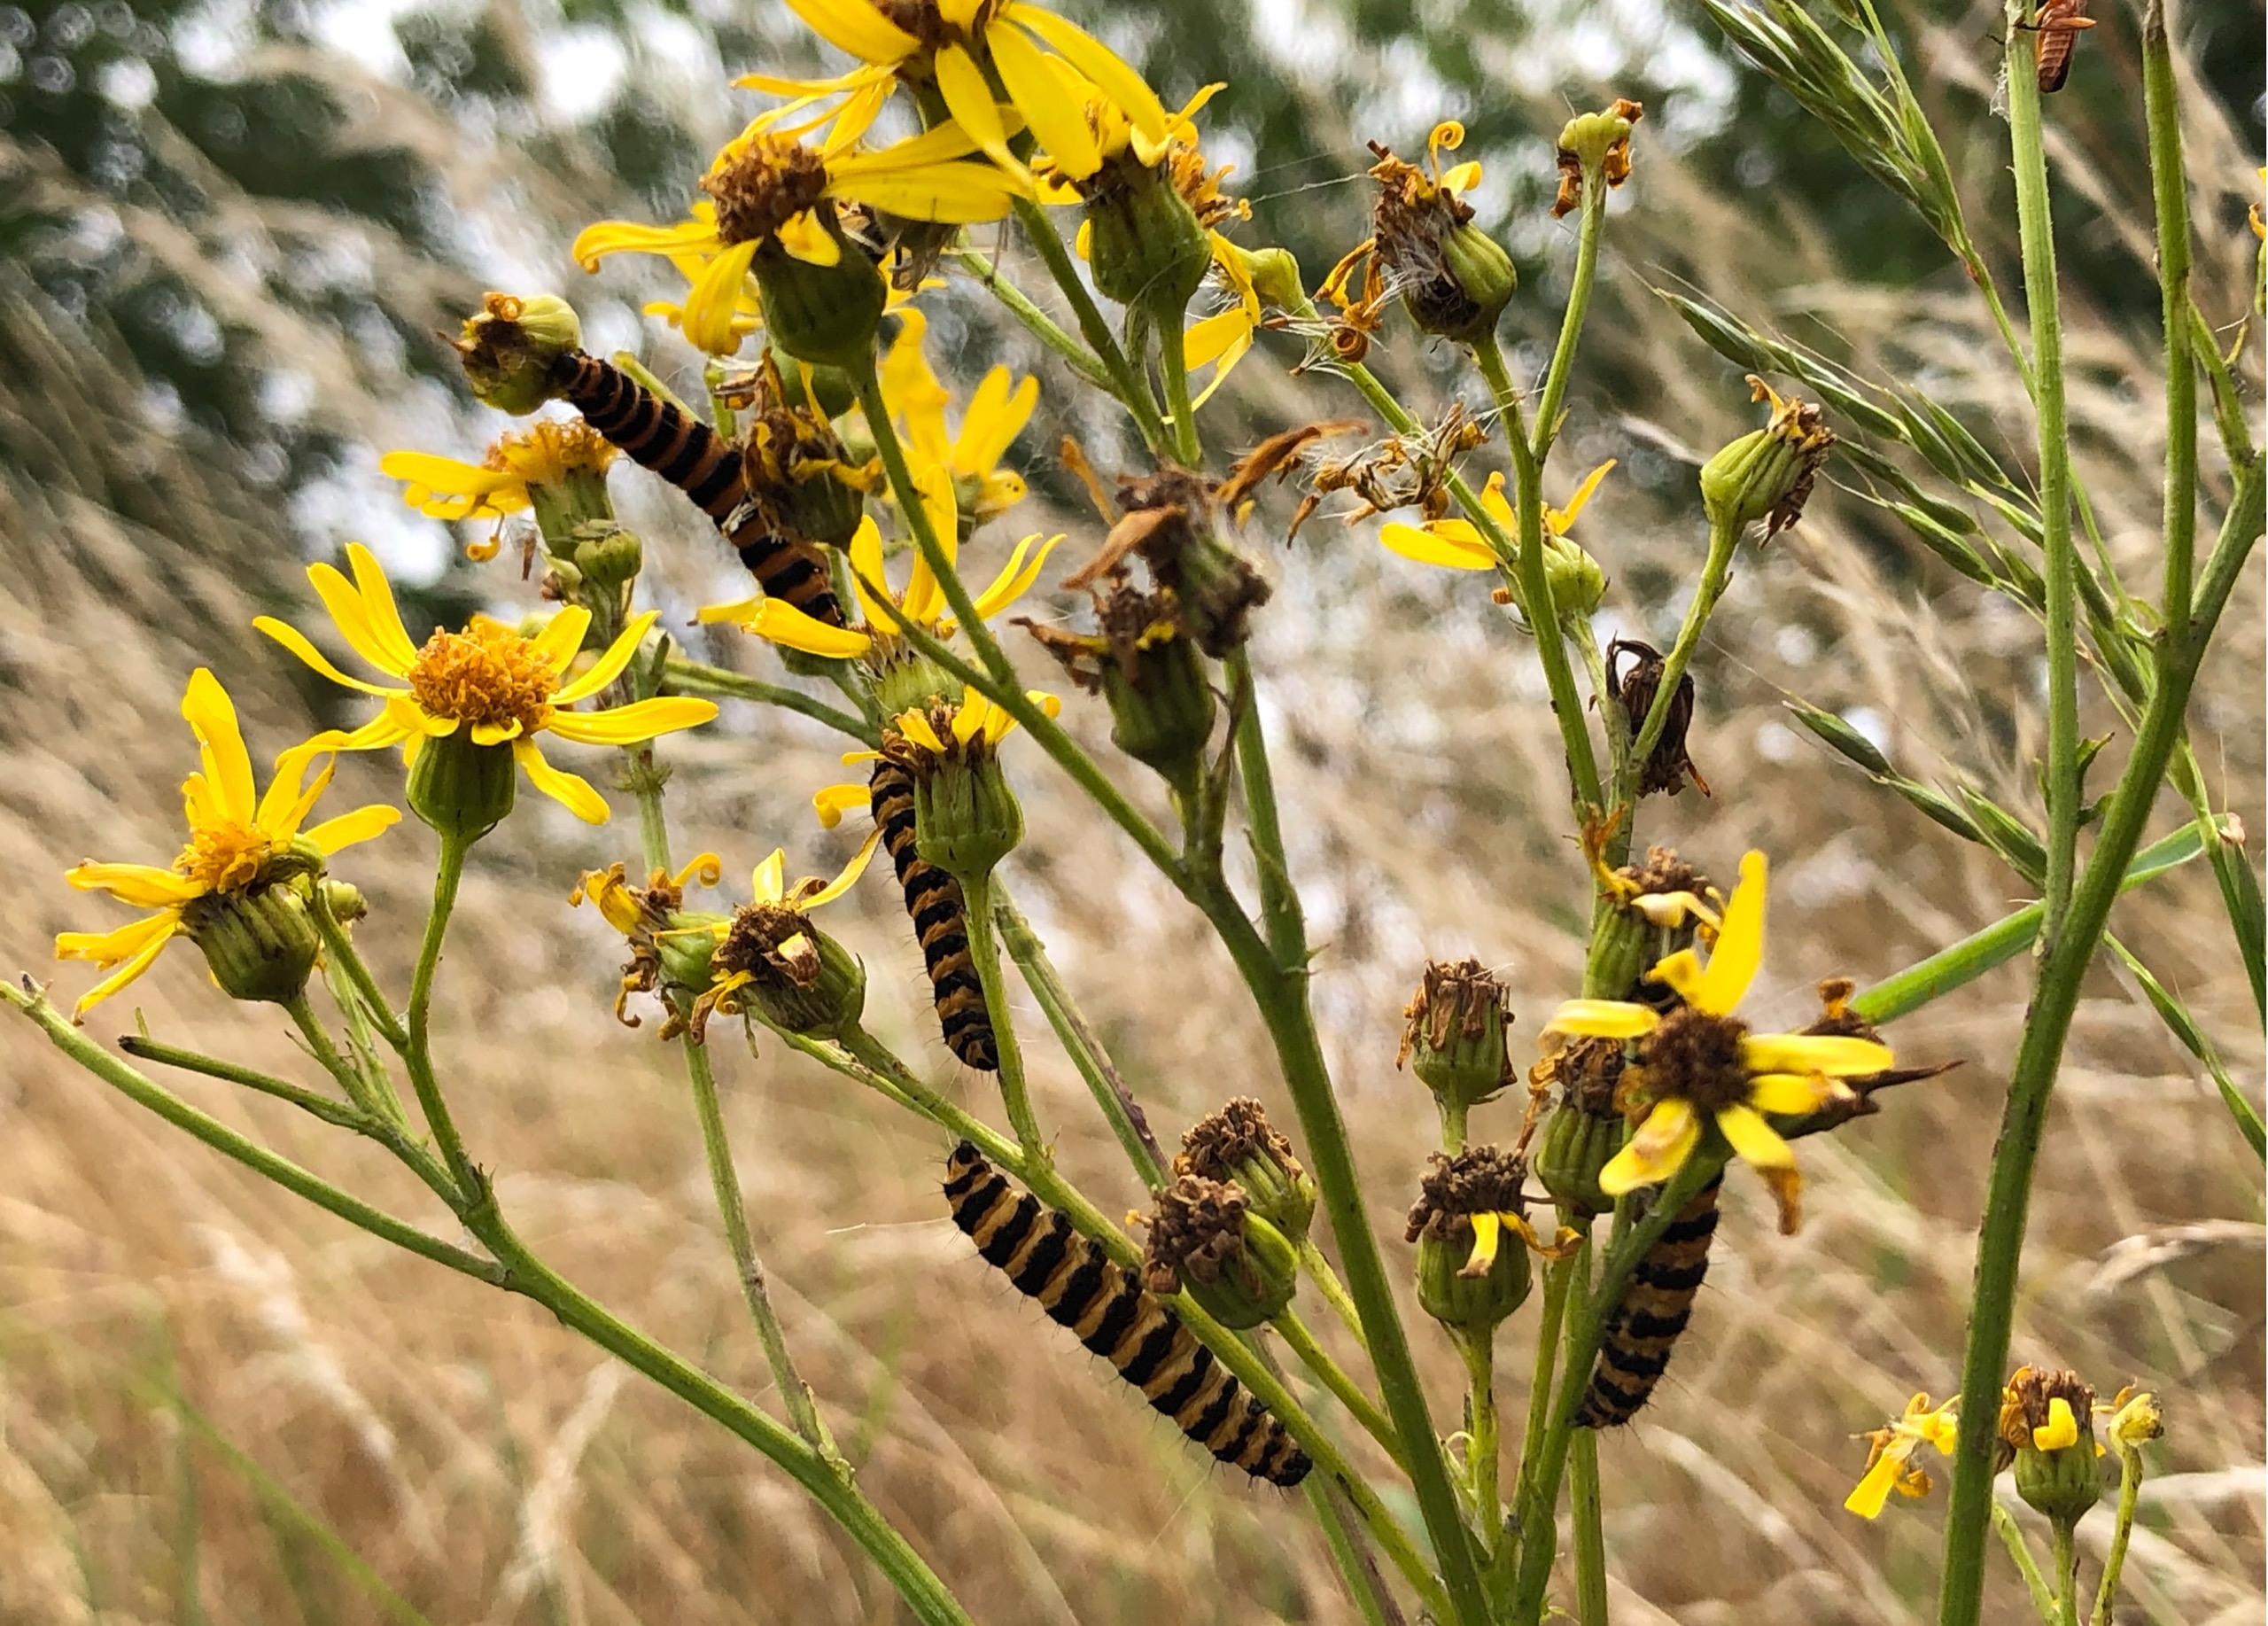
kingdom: Plantae
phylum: Tracheophyta
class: Magnoliopsida
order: Asterales
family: Asteraceae
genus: Jacobaea
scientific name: Jacobaea vulgaris
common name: Eng-brandbæger
